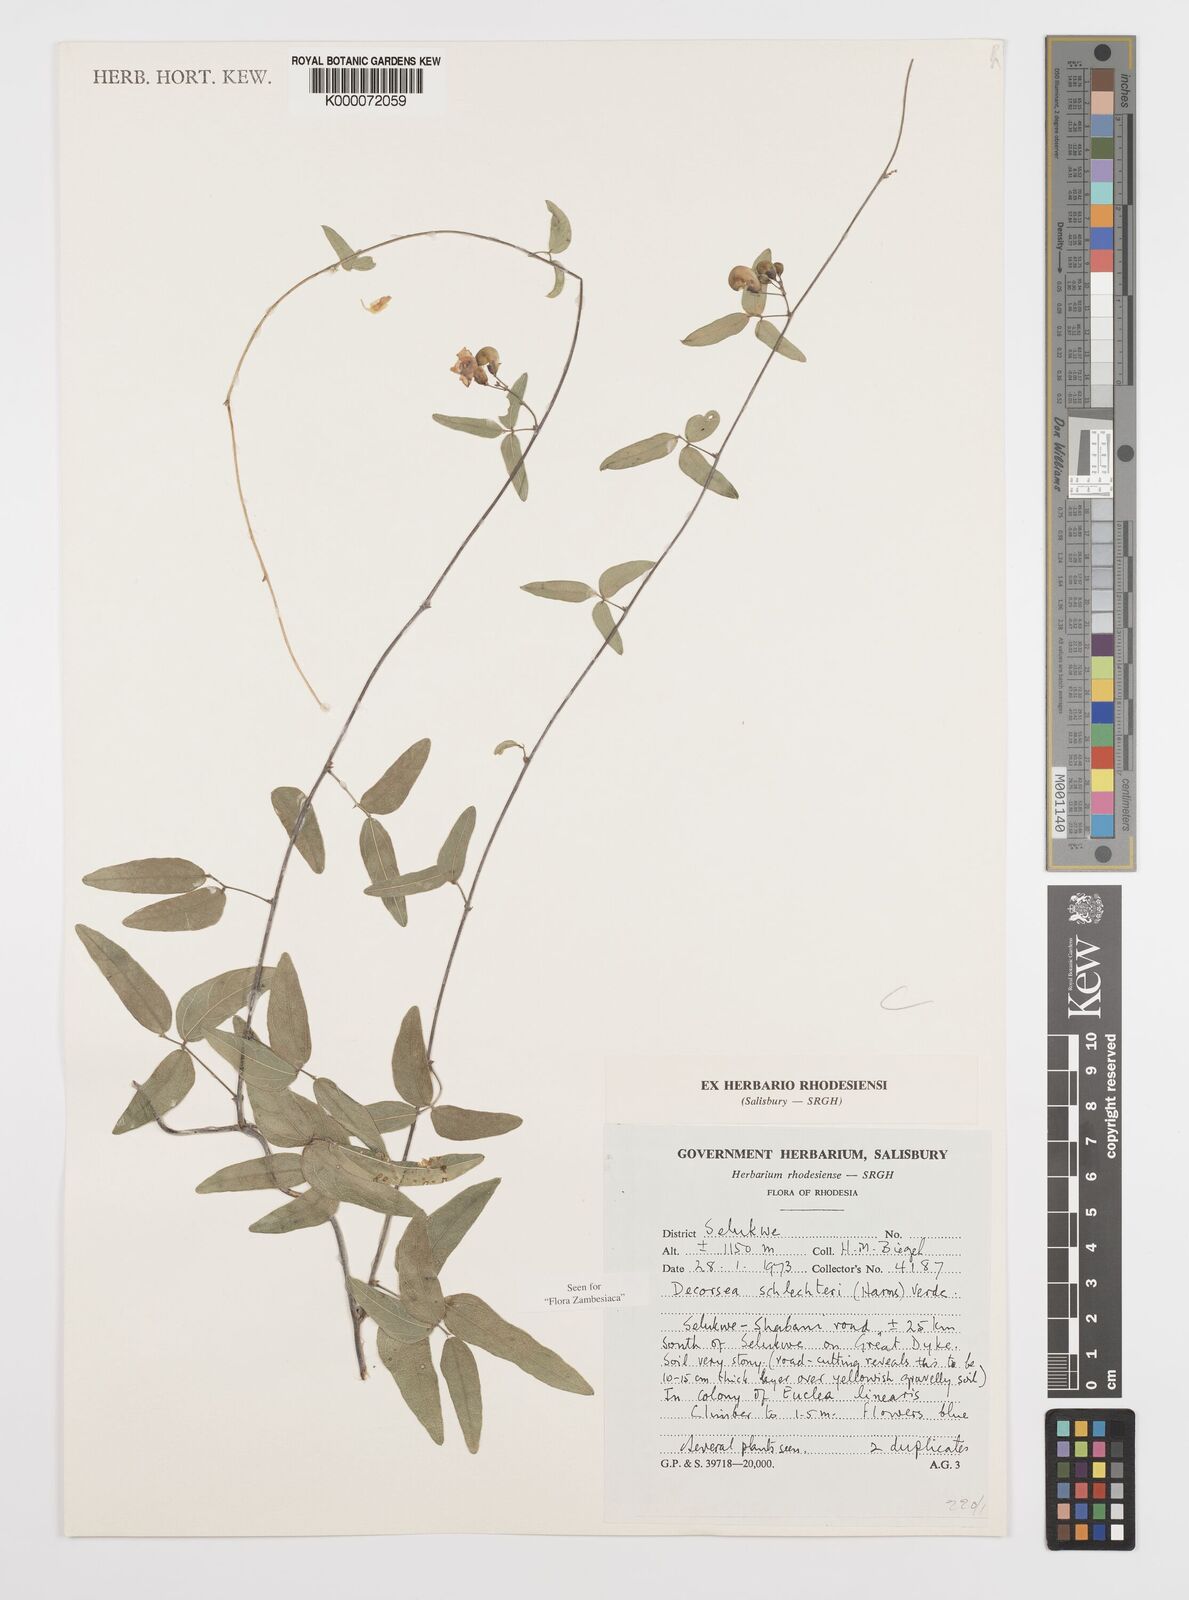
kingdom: Plantae
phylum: Tracheophyta
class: Magnoliopsida
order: Fabales
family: Fabaceae
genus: Decorsea
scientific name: Decorsea schlechteri
